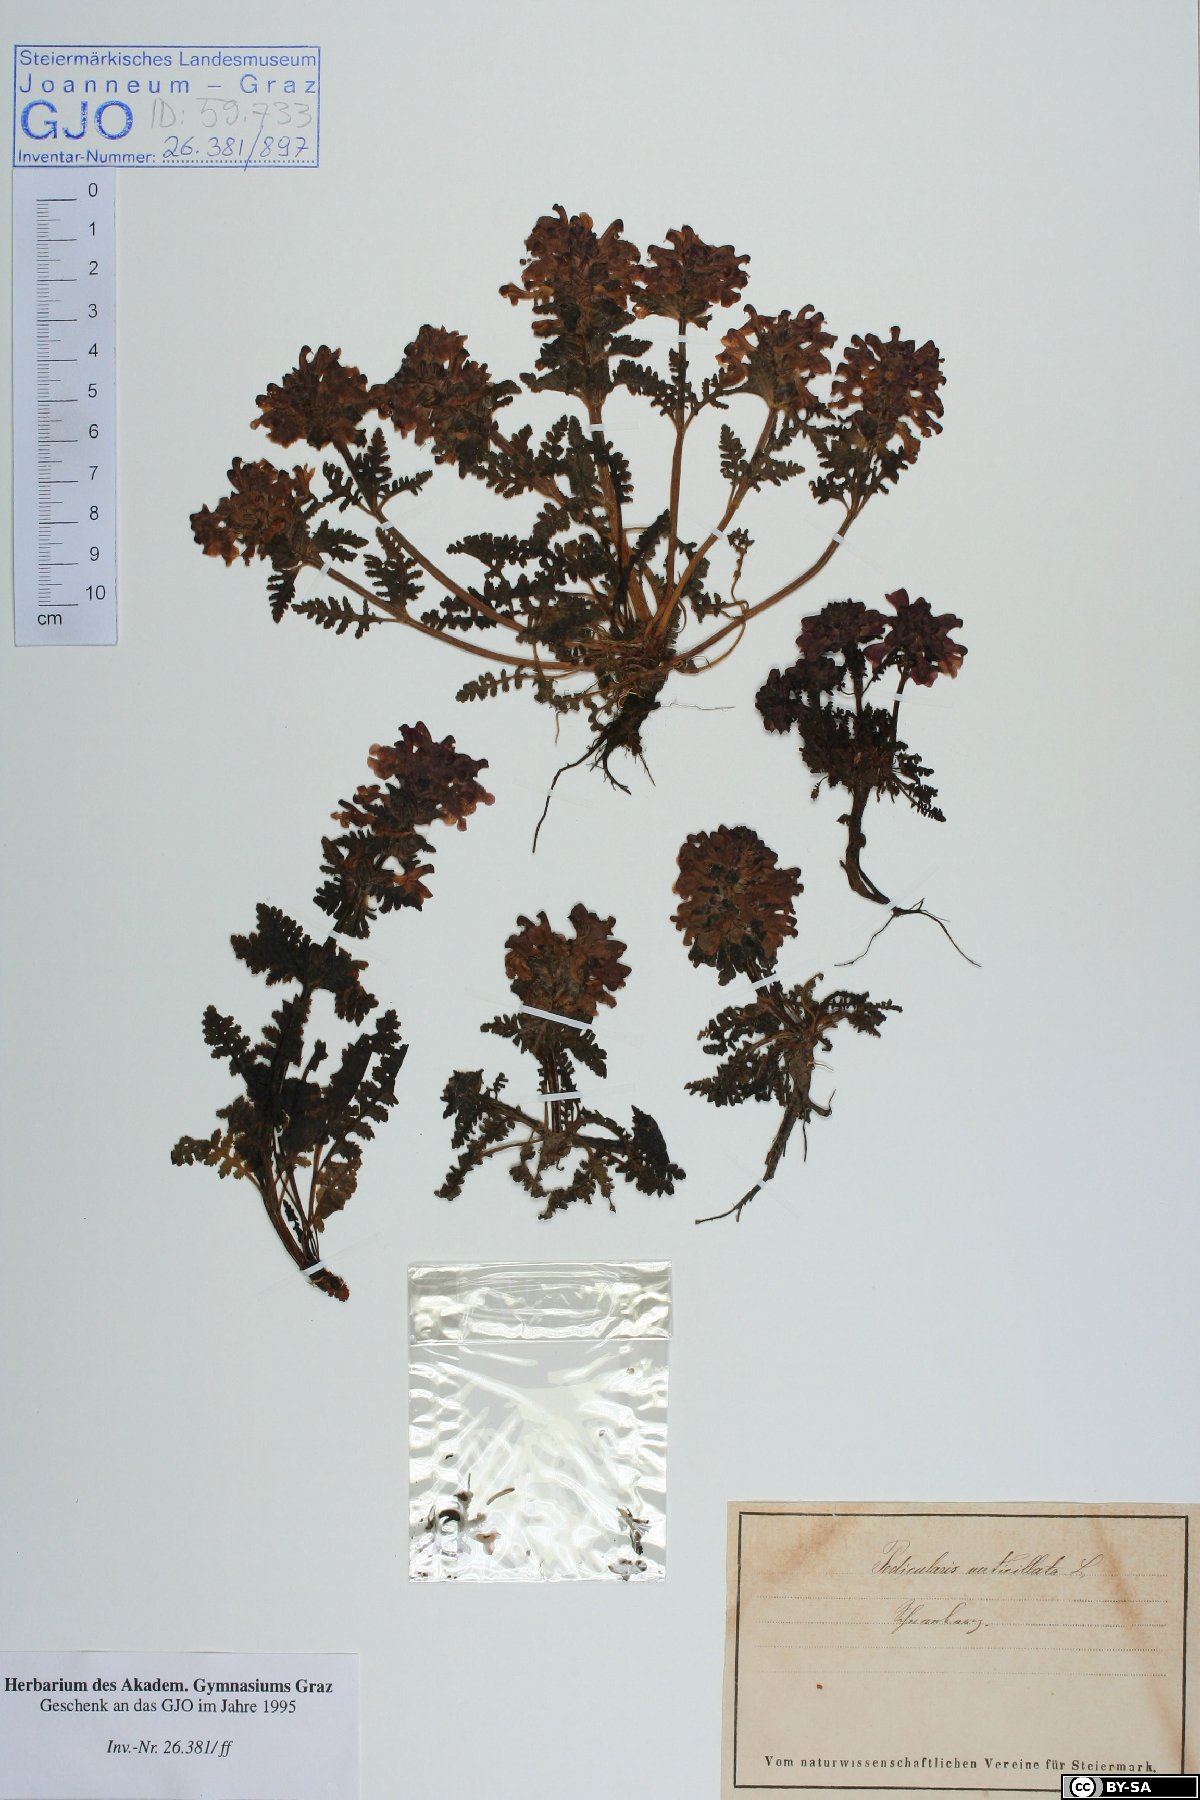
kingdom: Plantae
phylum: Tracheophyta
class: Magnoliopsida
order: Lamiales
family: Orobanchaceae
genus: Pedicularis
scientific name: Pedicularis verticillata
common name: Whorled lousewort
